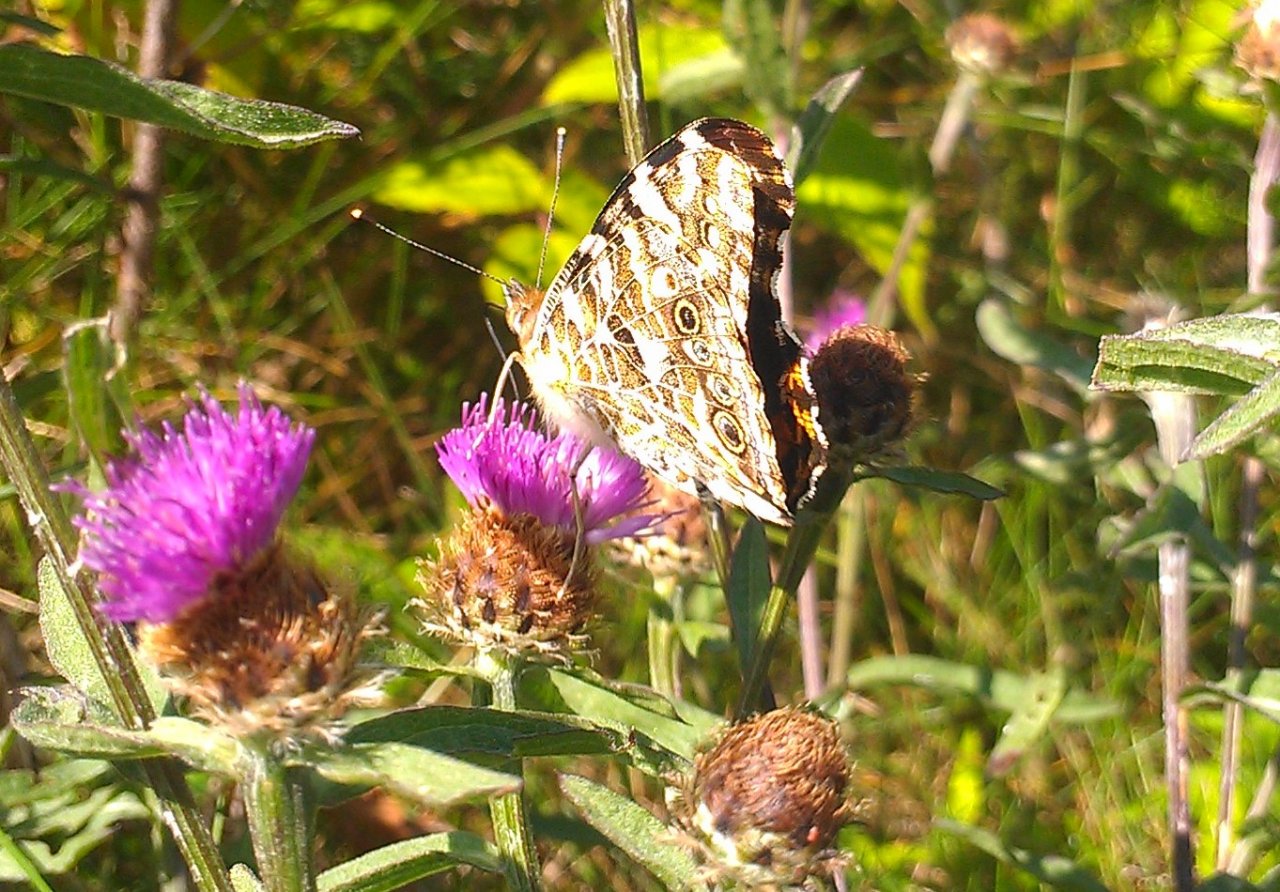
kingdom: Animalia
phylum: Arthropoda
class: Insecta
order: Lepidoptera
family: Nymphalidae
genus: Vanessa
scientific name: Vanessa cardui
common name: Painted Lady
